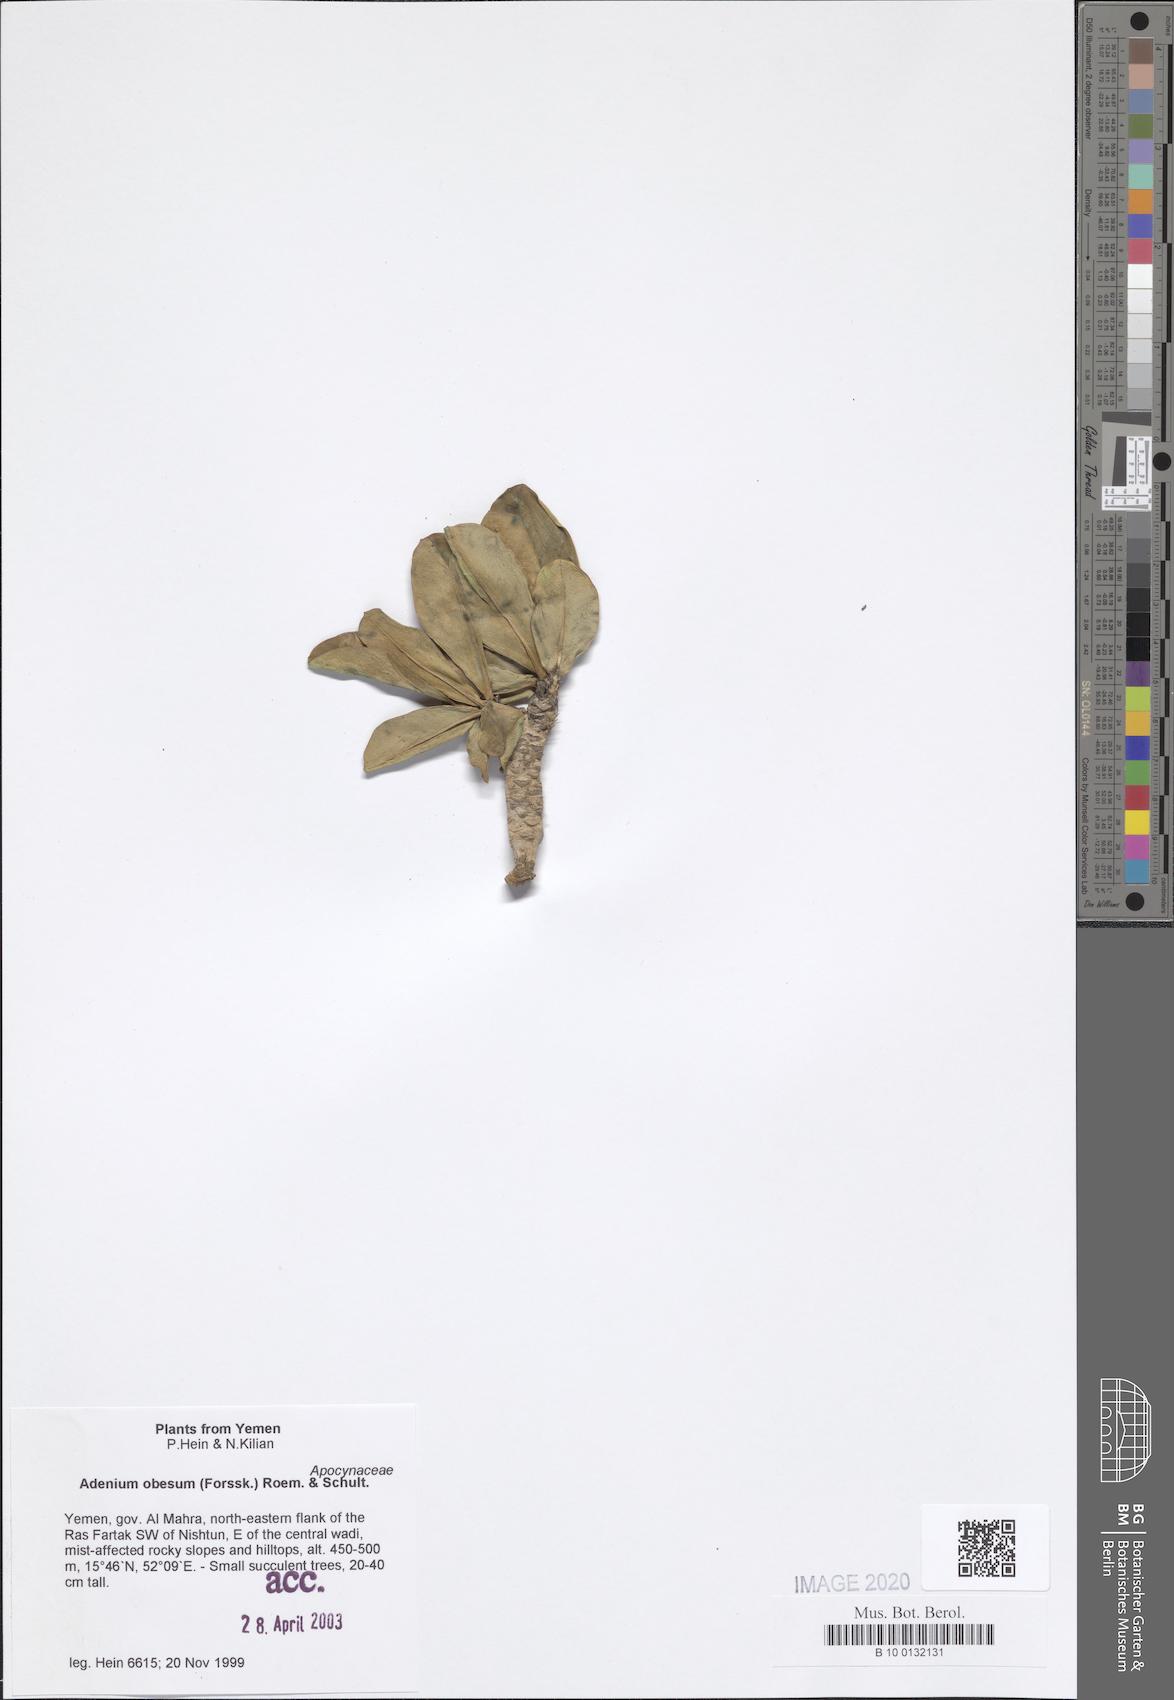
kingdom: Plantae
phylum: Tracheophyta
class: Magnoliopsida
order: Gentianales
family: Apocynaceae
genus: Adenium
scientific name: Adenium obesum
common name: Desert-rose
